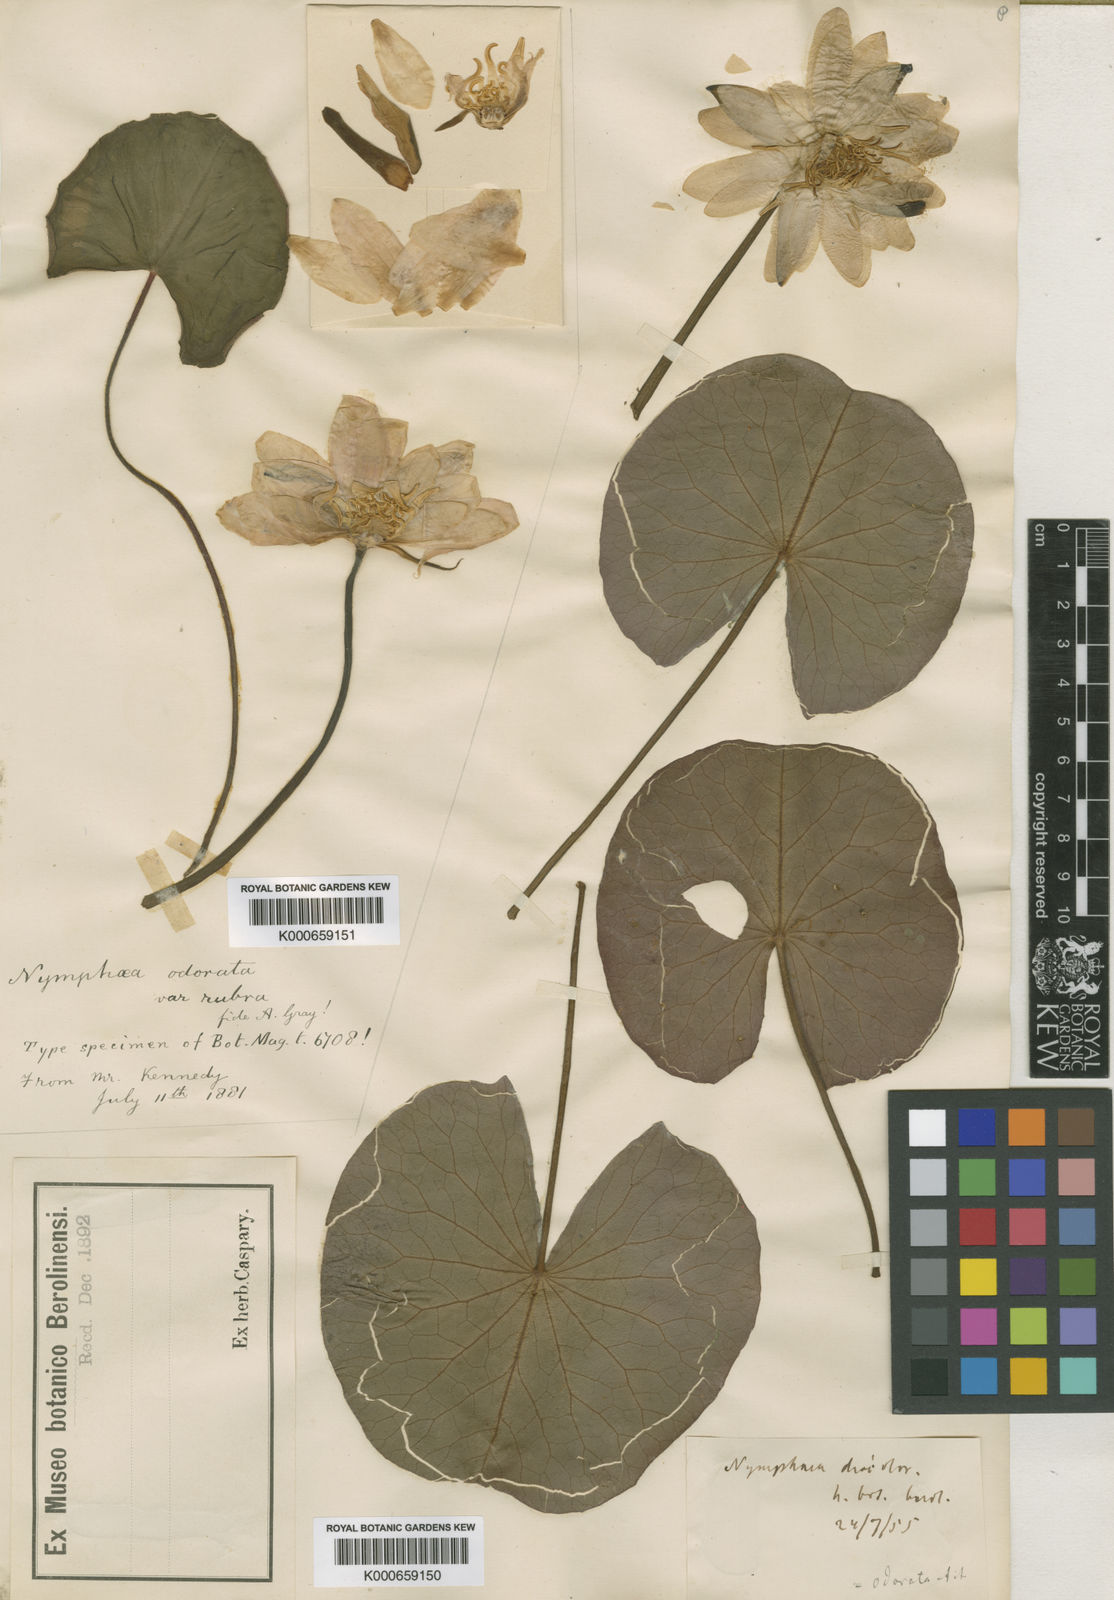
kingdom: Plantae
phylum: Tracheophyta
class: Magnoliopsida
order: Nymphaeales
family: Nymphaeaceae
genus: Nymphaea
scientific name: Nymphaea odorata
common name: Fragrant water-lily
